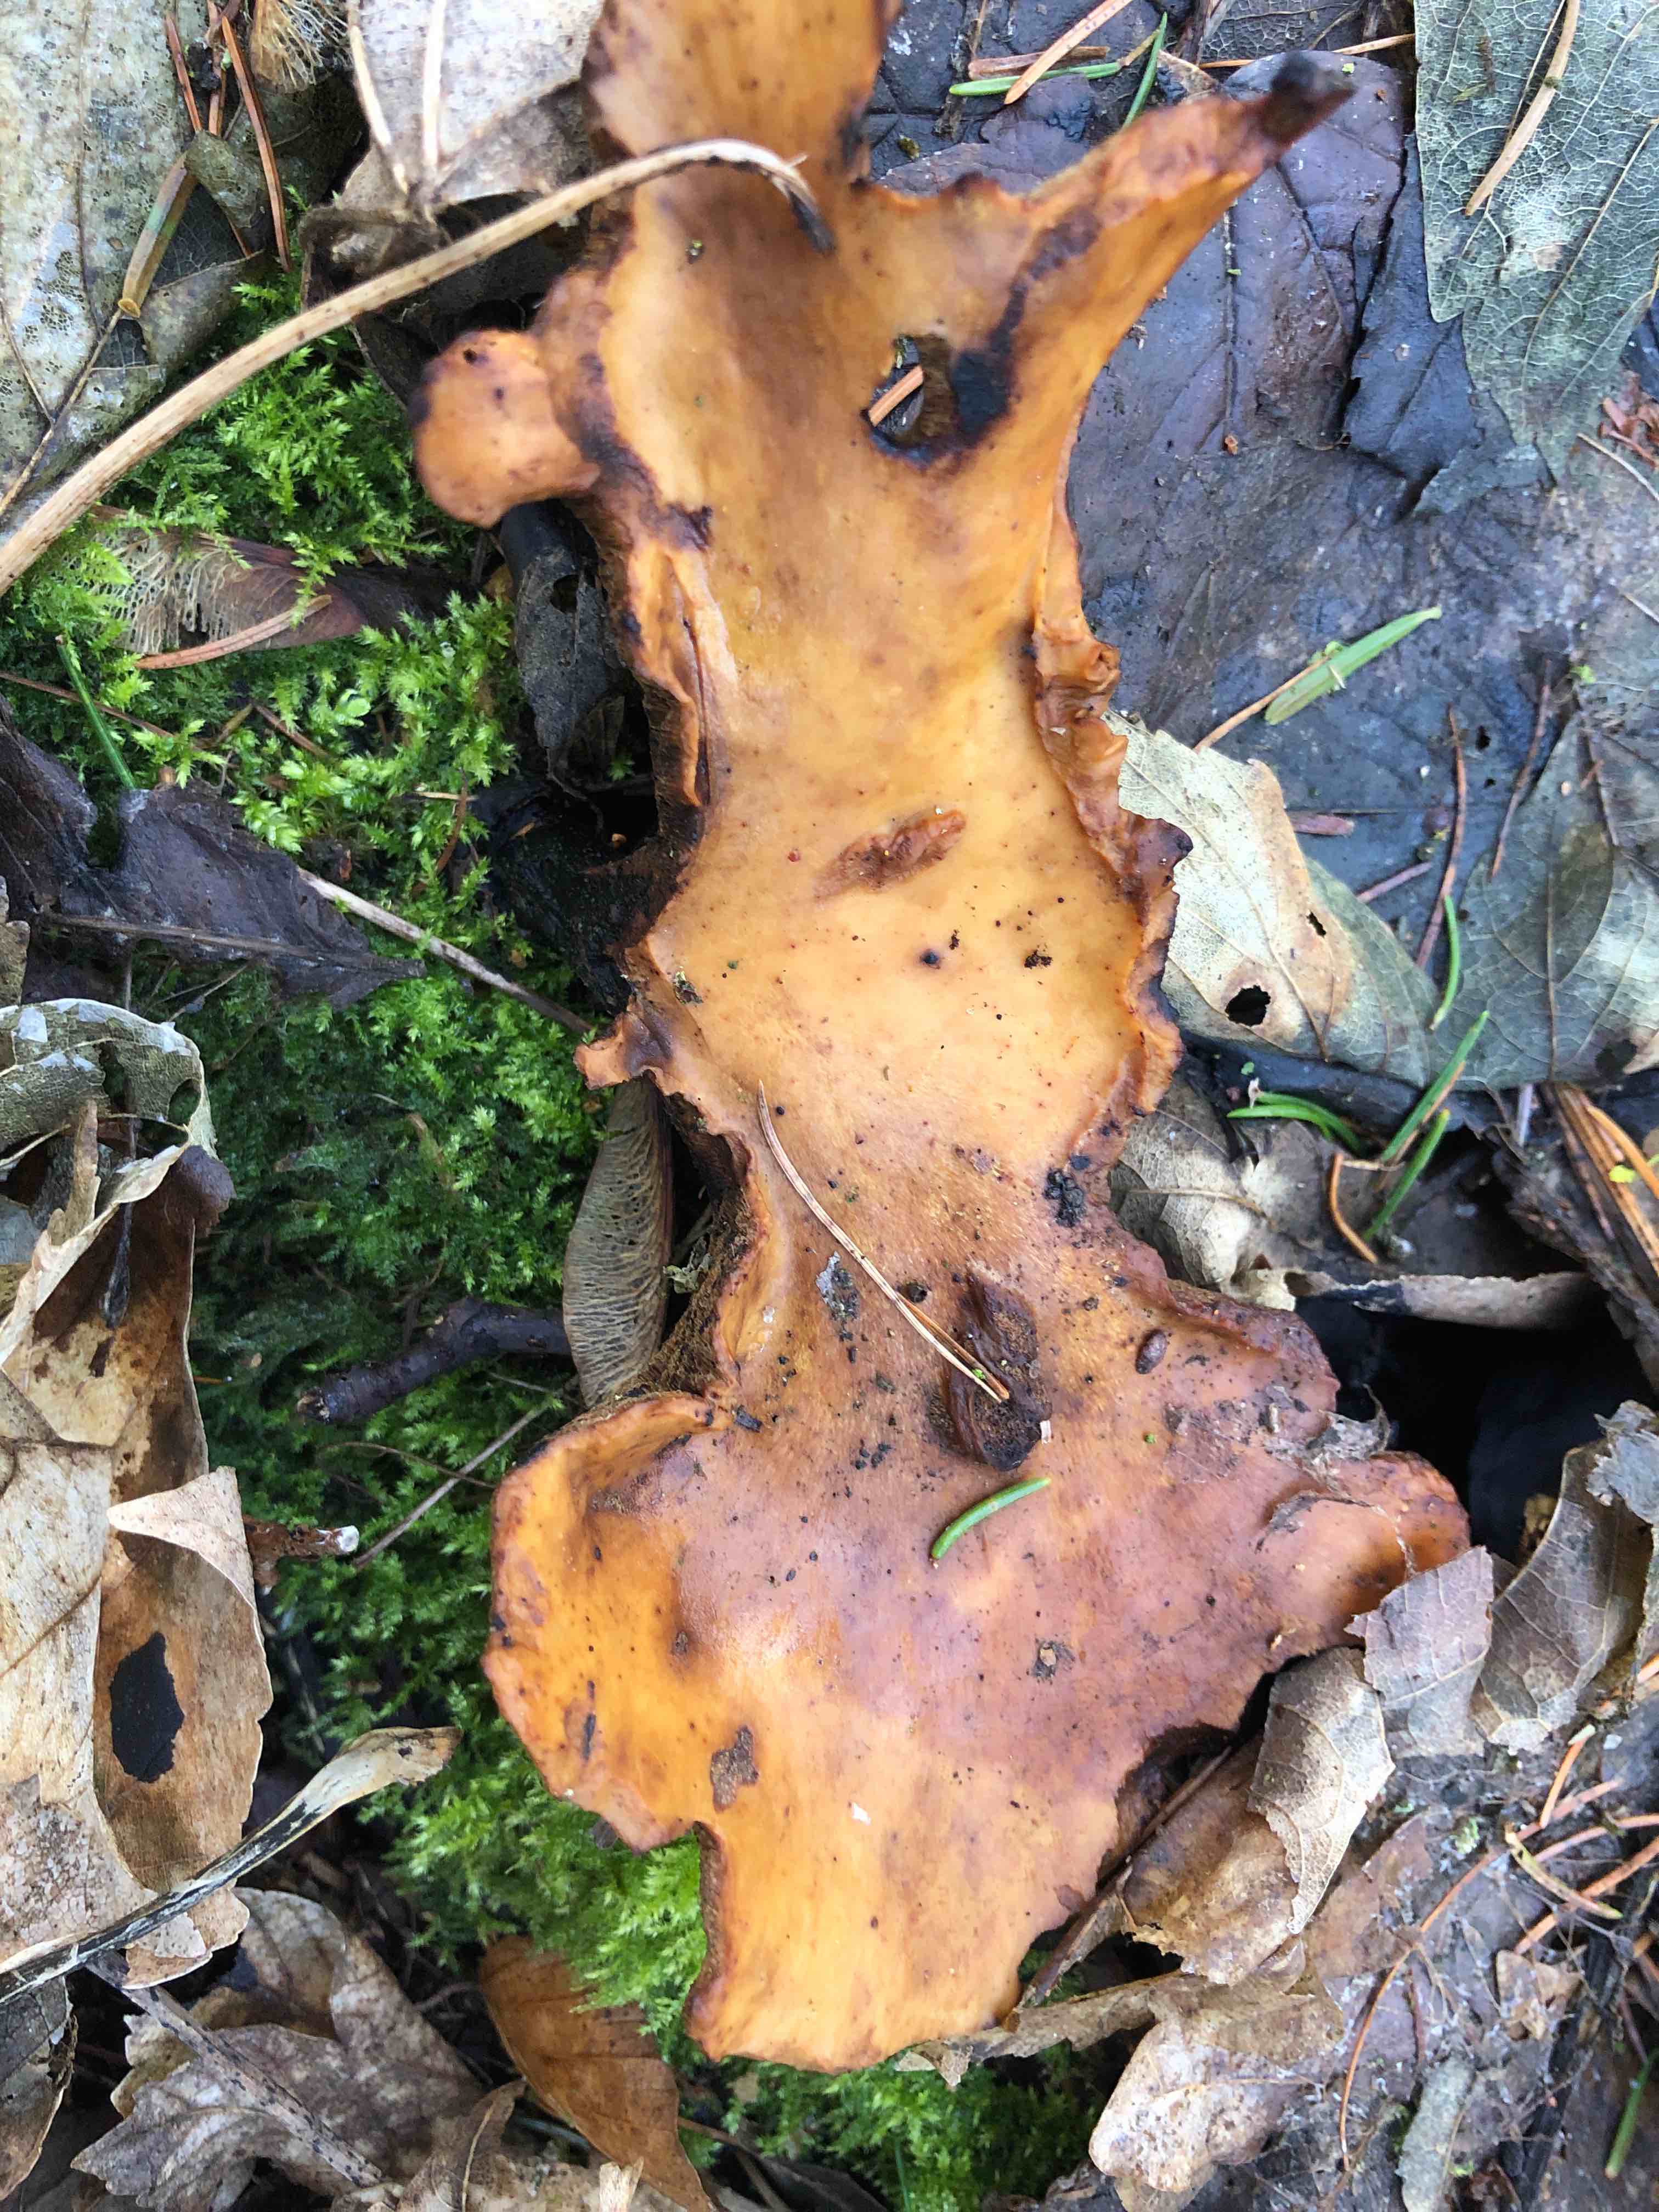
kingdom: Fungi
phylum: Basidiomycota
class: Agaricomycetes
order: Polyporales
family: Polyporaceae
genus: Cerioporus
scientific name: Cerioporus varius
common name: foranderlig stilkporesvamp
